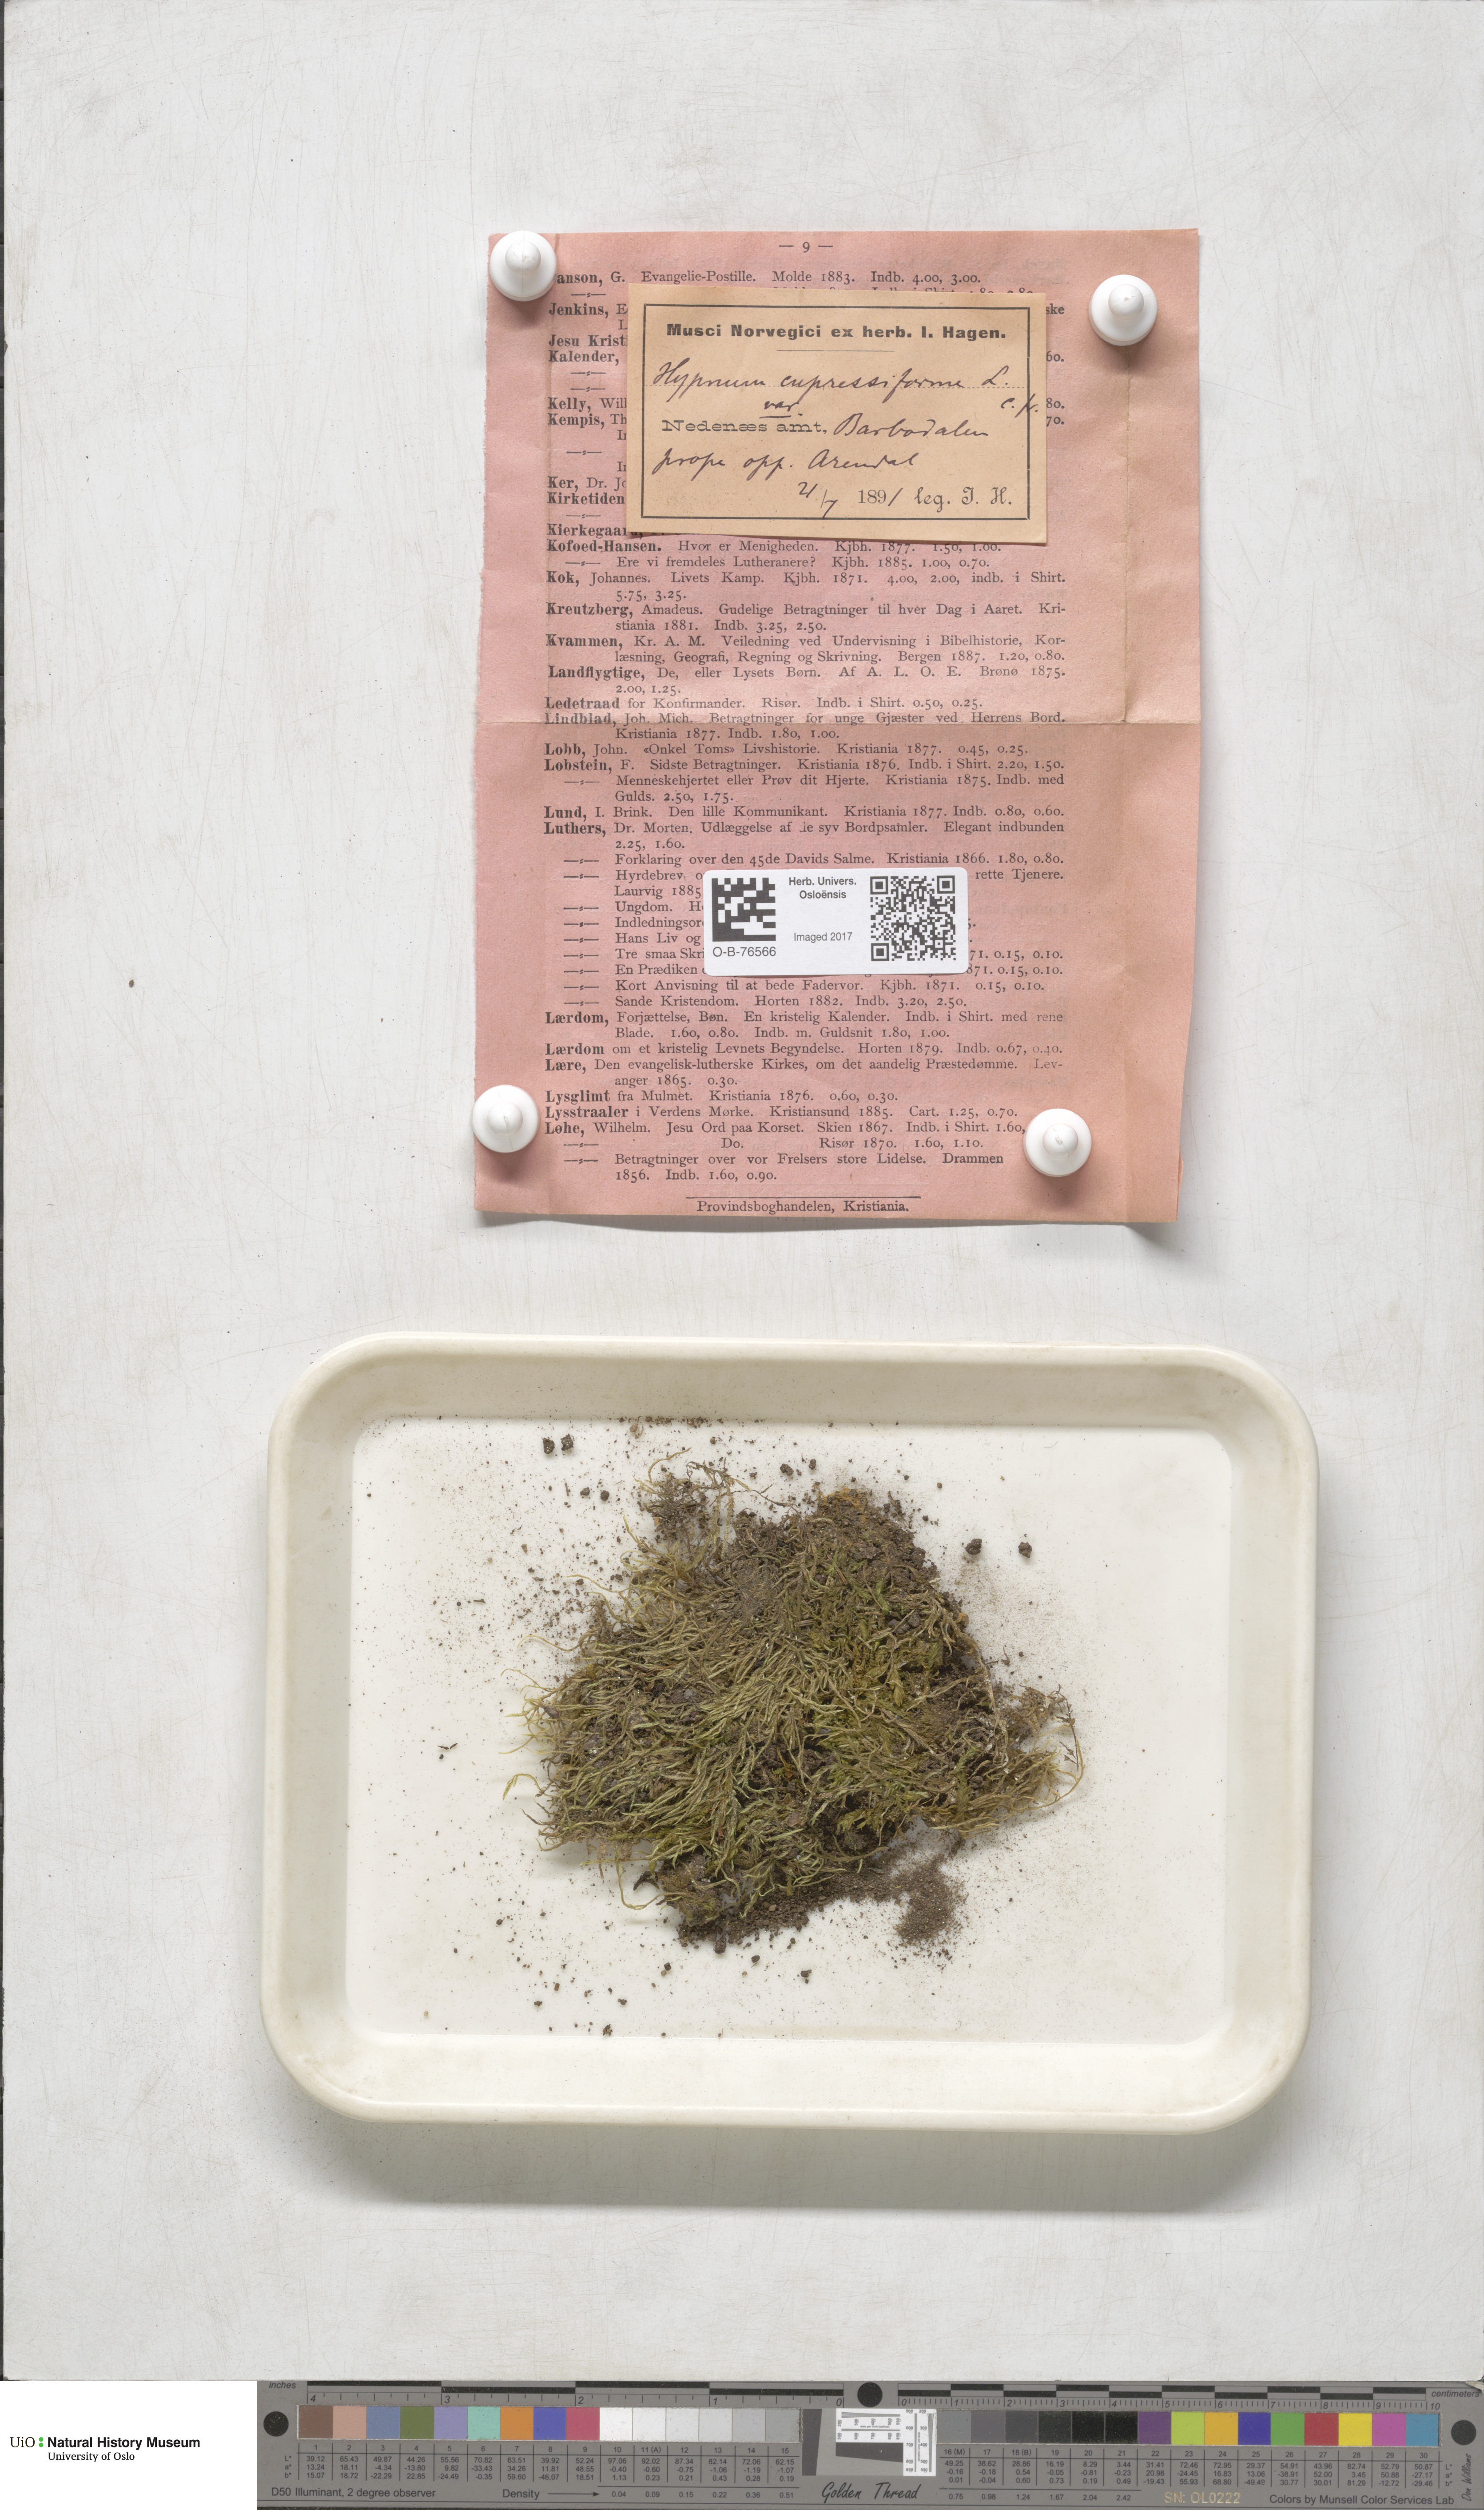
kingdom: Plantae
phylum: Bryophyta
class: Bryopsida
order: Hypnales
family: Hypnaceae
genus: Hypnum
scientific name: Hypnum cupressiforme
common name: Cypress-leaved plait-moss
